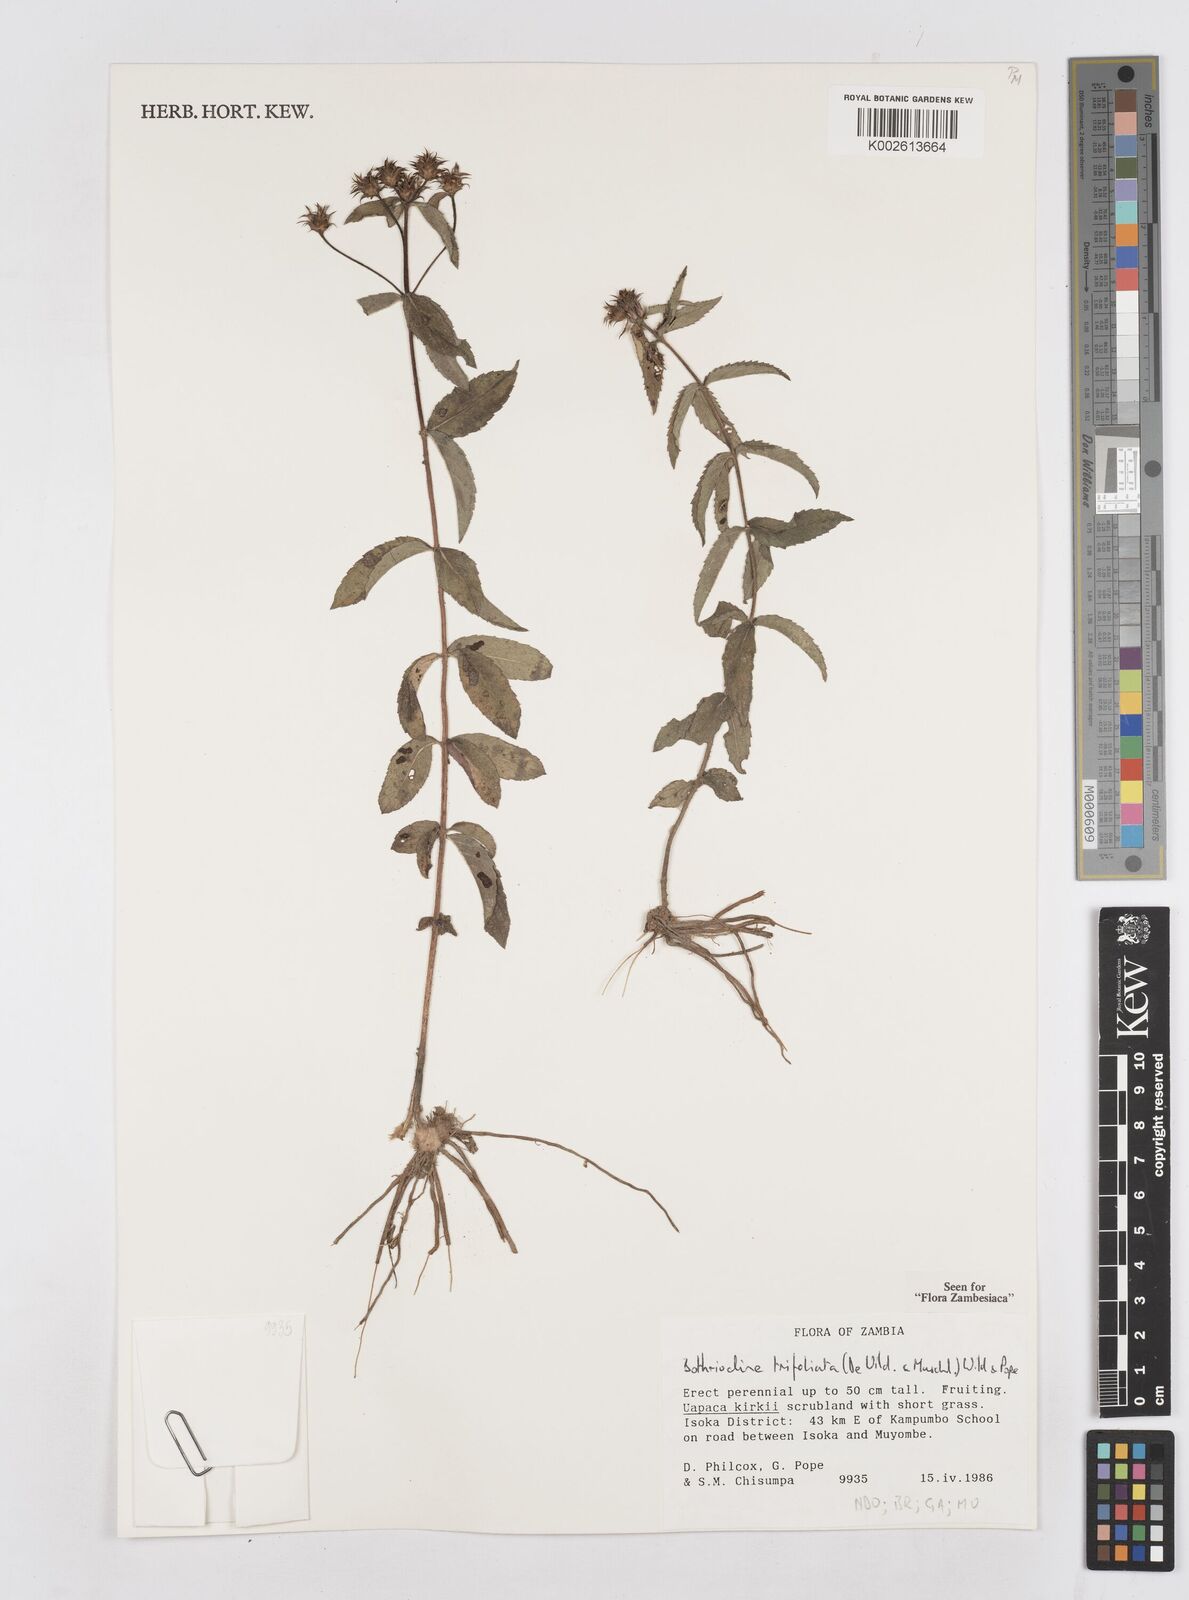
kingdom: Plantae
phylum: Tracheophyta
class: Magnoliopsida
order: Asterales
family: Asteraceae
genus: Bothriocline
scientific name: Bothriocline trifoliata
